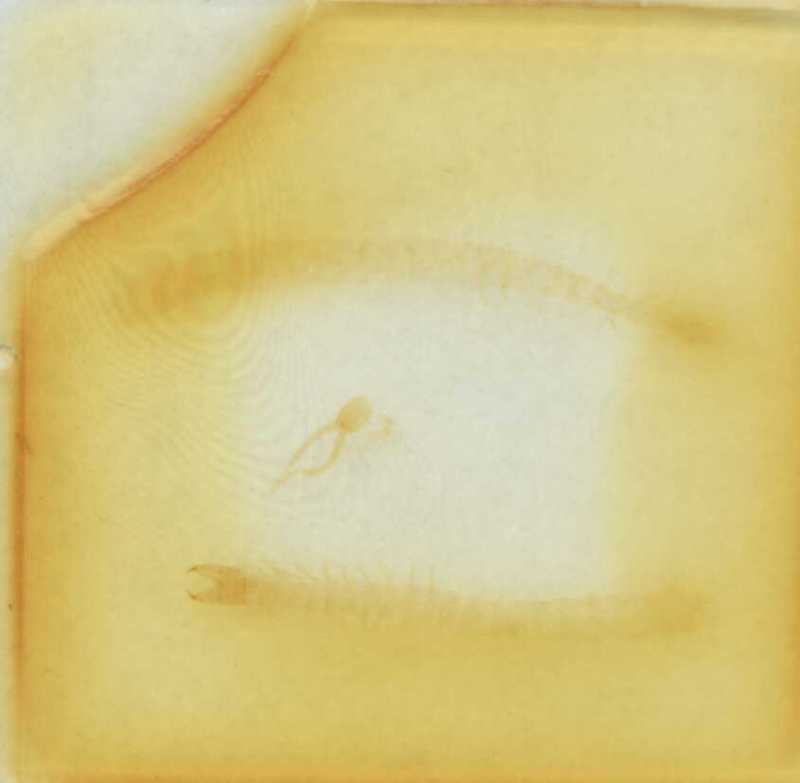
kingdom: Animalia
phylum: Arthropoda
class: Chilopoda
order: Geophilomorpha
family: Geophilidae
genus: Polygonarea
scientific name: Polygonarea africana
